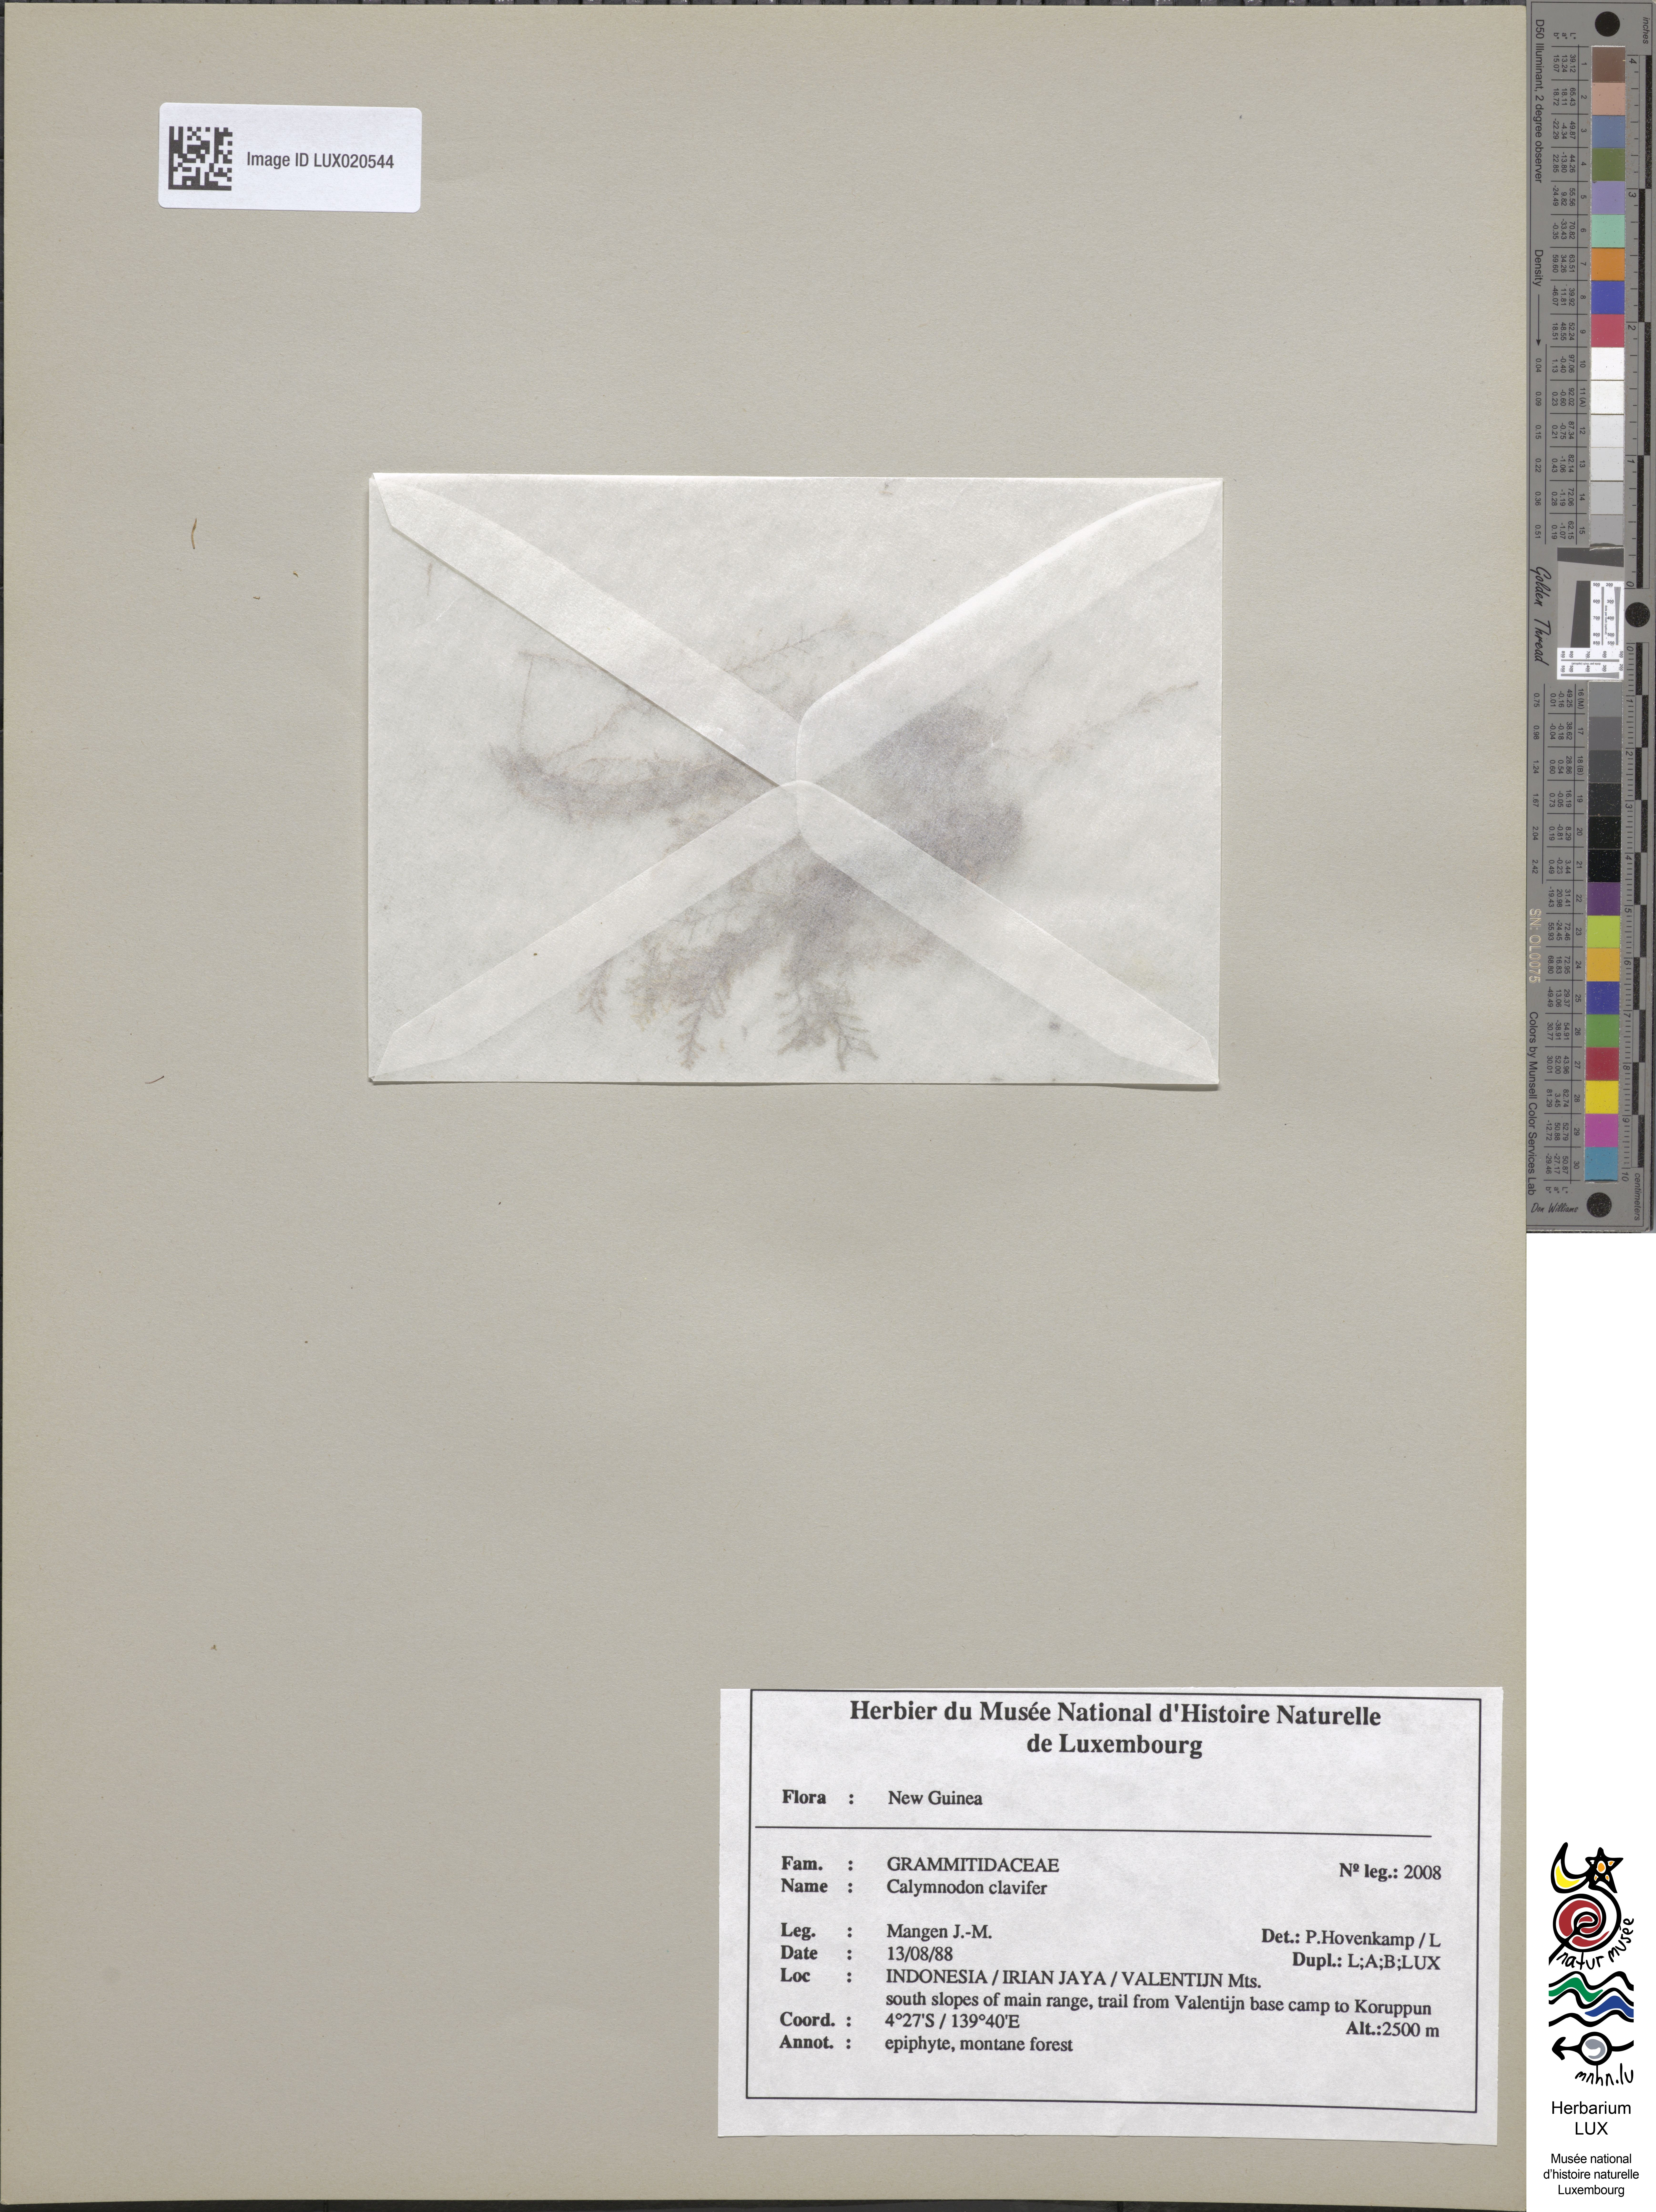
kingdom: Plantae
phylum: Tracheophyta
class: Polypodiopsida
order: Polypodiales
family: Polypodiaceae
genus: Calymmodon
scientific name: Calymmodon clavifer
